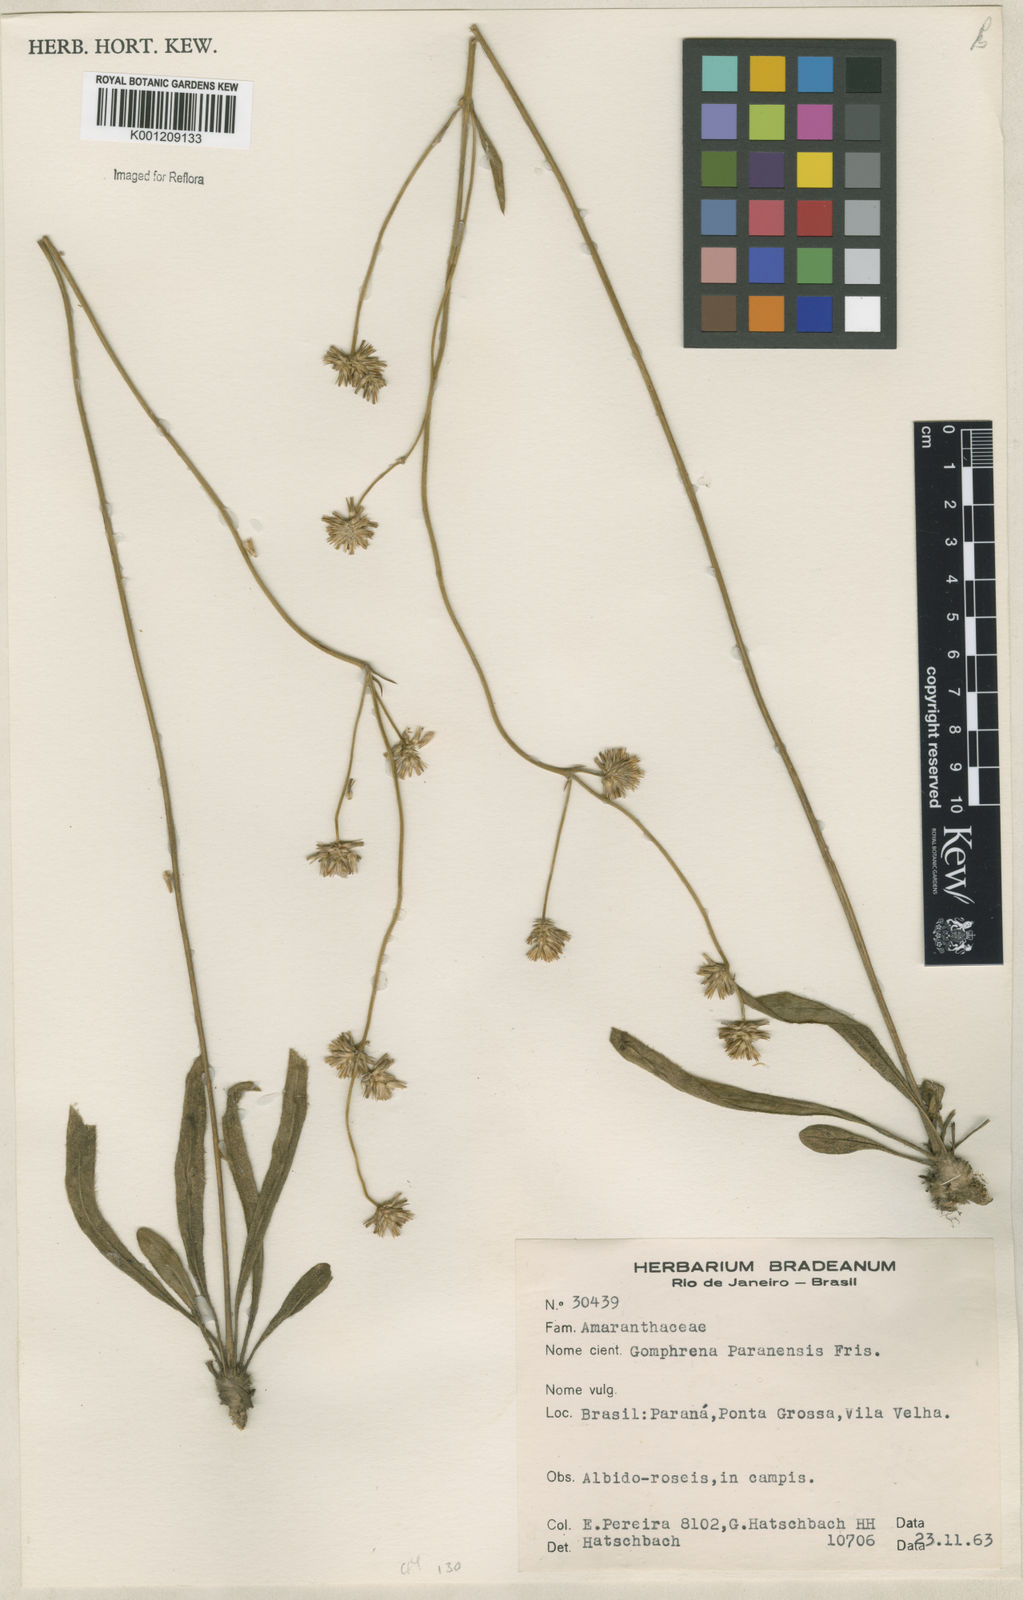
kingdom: Plantae
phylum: Tracheophyta
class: Magnoliopsida
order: Caryophyllales
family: Amaranthaceae
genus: Gomphrena
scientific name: Gomphrena paranensis
